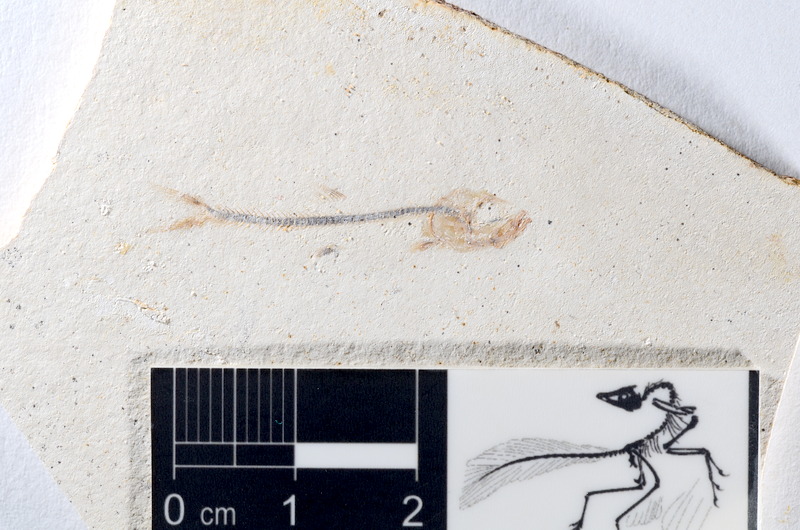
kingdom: Animalia
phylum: Chordata
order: Salmoniformes
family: Orthogonikleithridae
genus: Orthogonikleithrus
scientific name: Orthogonikleithrus hoelli
